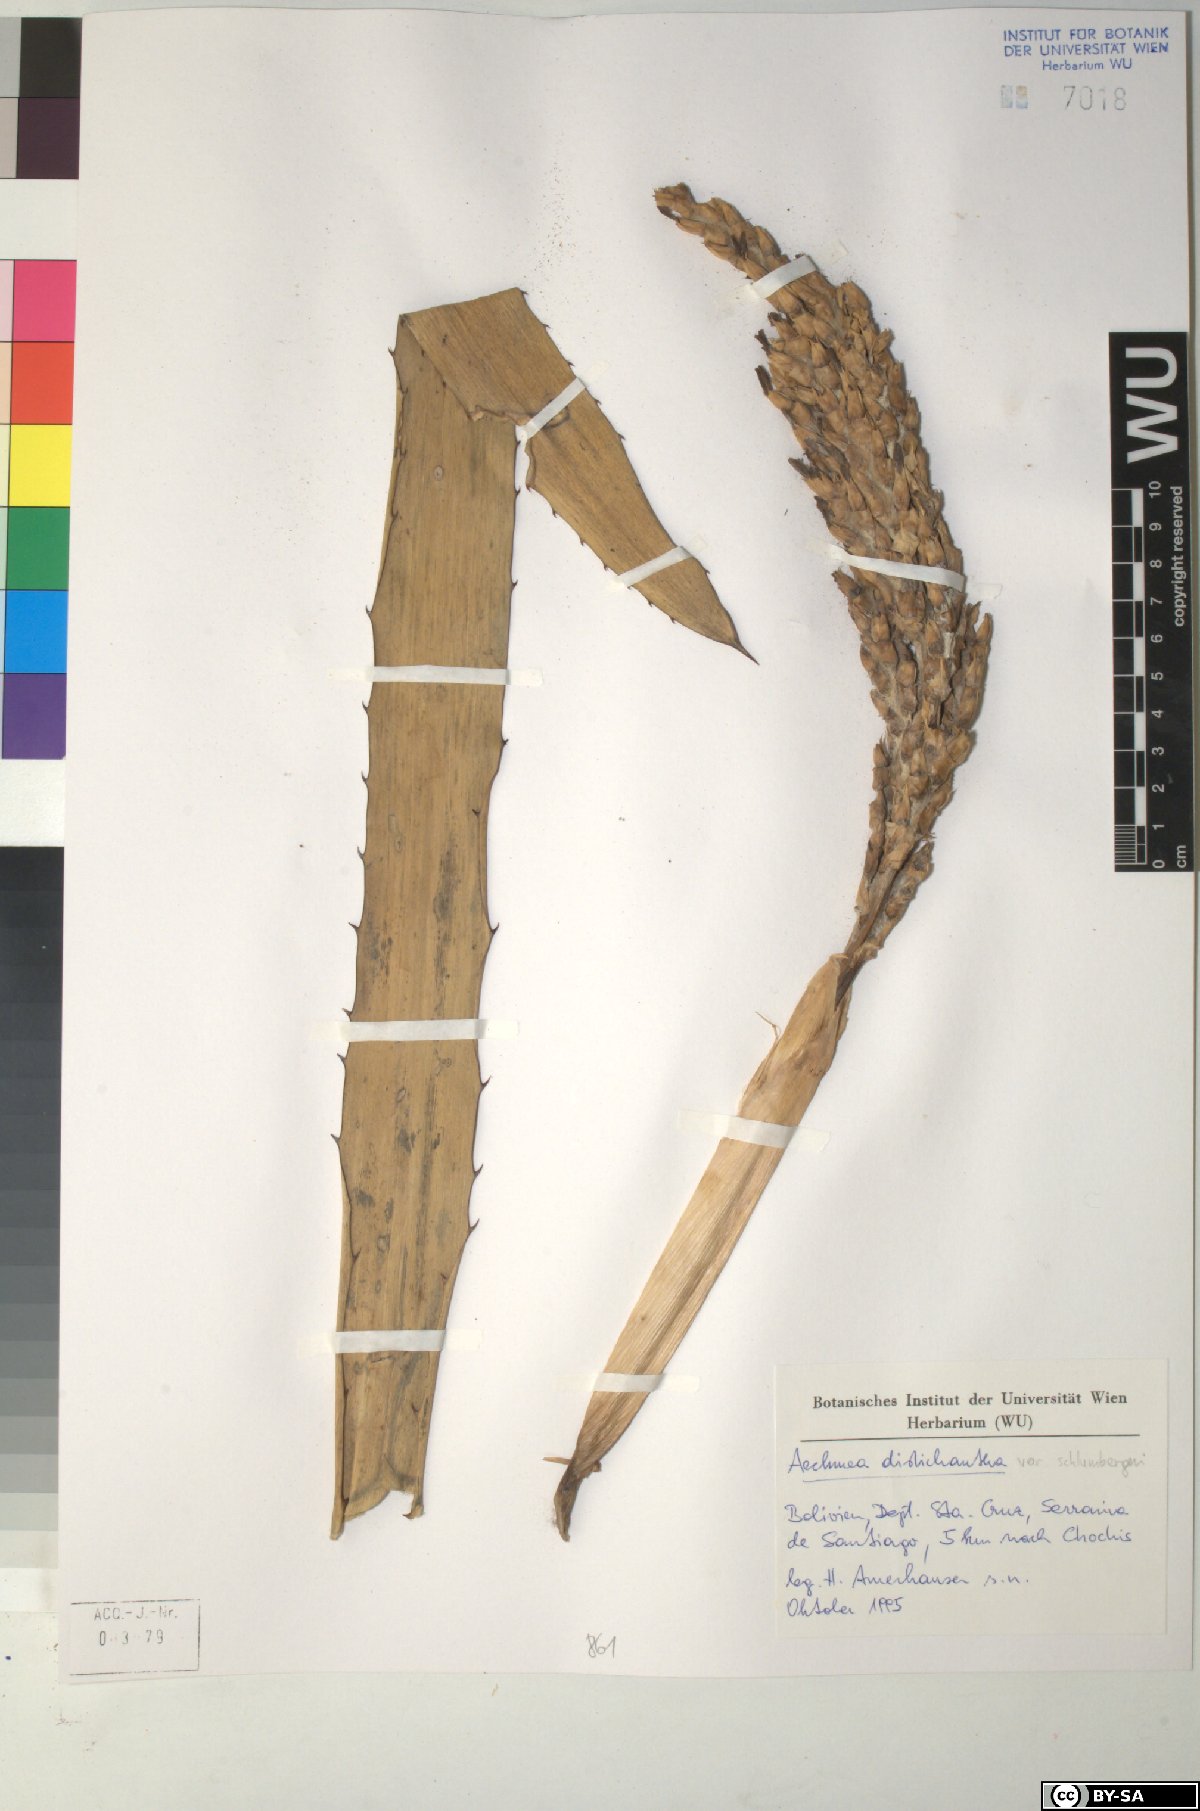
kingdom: Plantae
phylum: Tracheophyta
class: Liliopsida
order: Poales
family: Bromeliaceae
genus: Aechmea
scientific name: Aechmea distichantha
